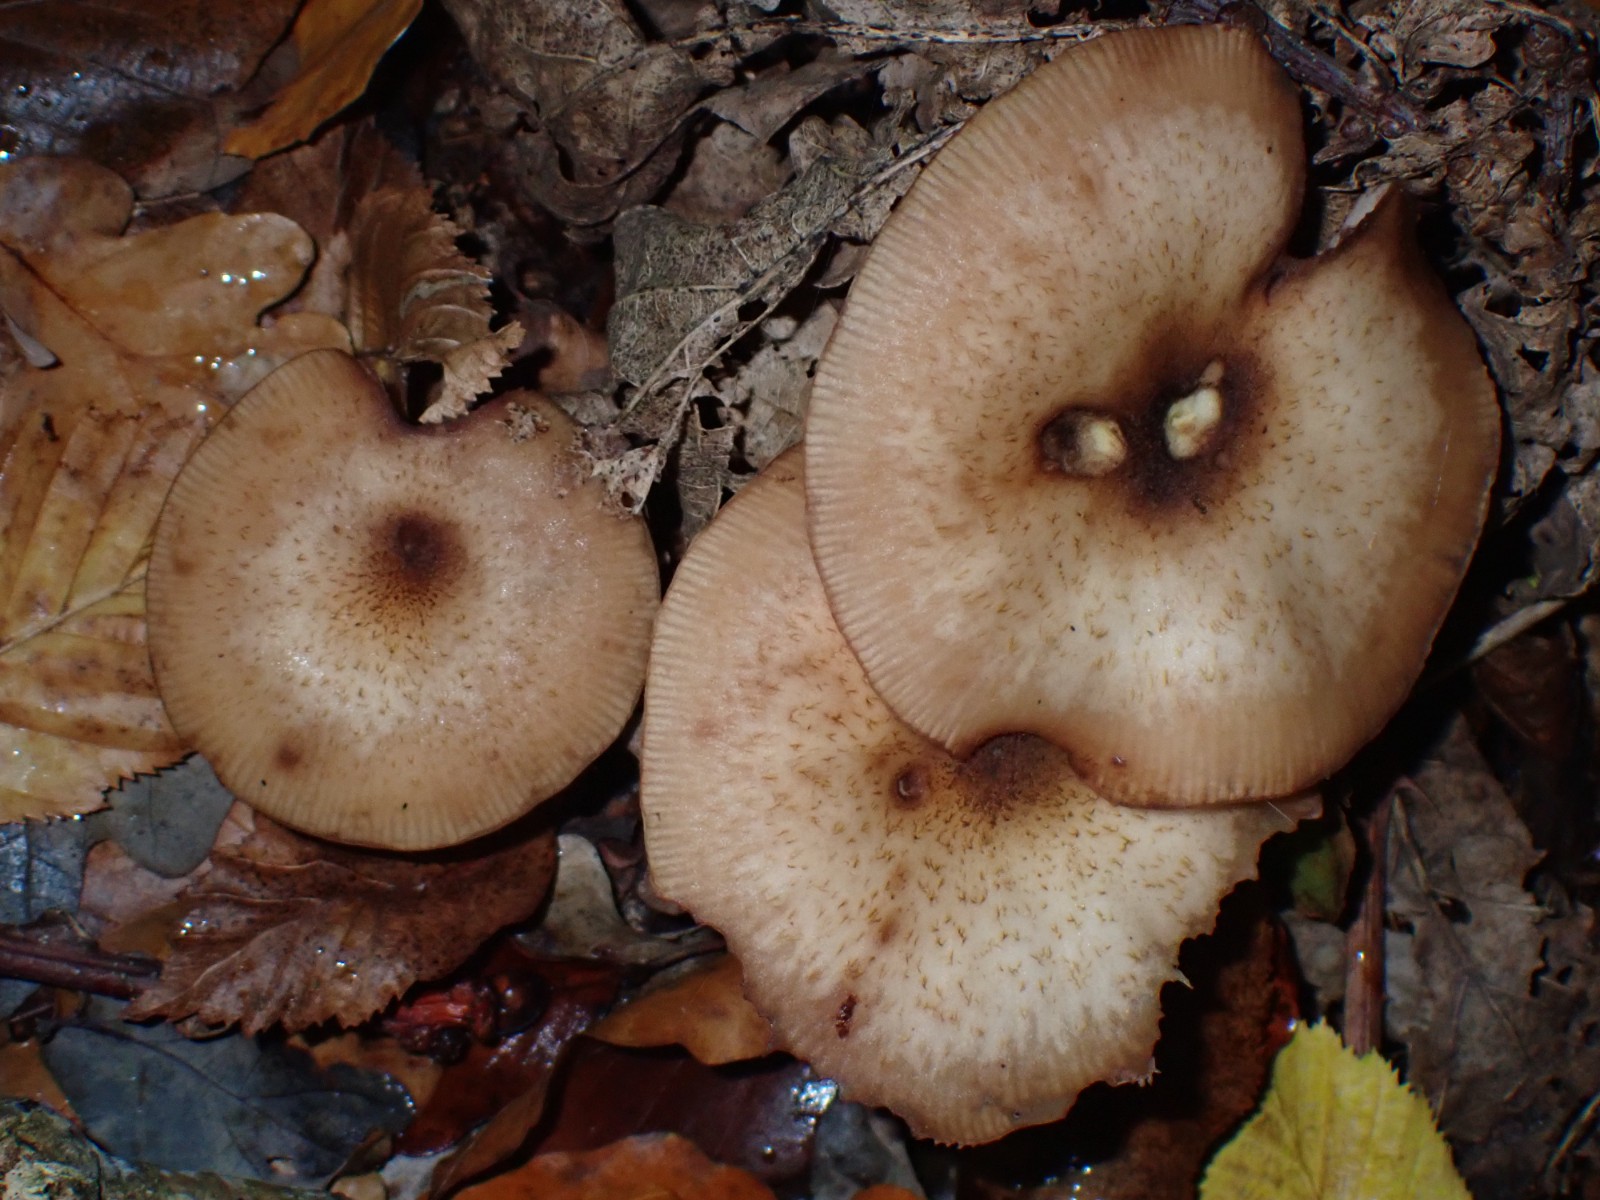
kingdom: Fungi
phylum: Basidiomycota
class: Agaricomycetes
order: Agaricales
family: Physalacriaceae
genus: Armillaria
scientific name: Armillaria
